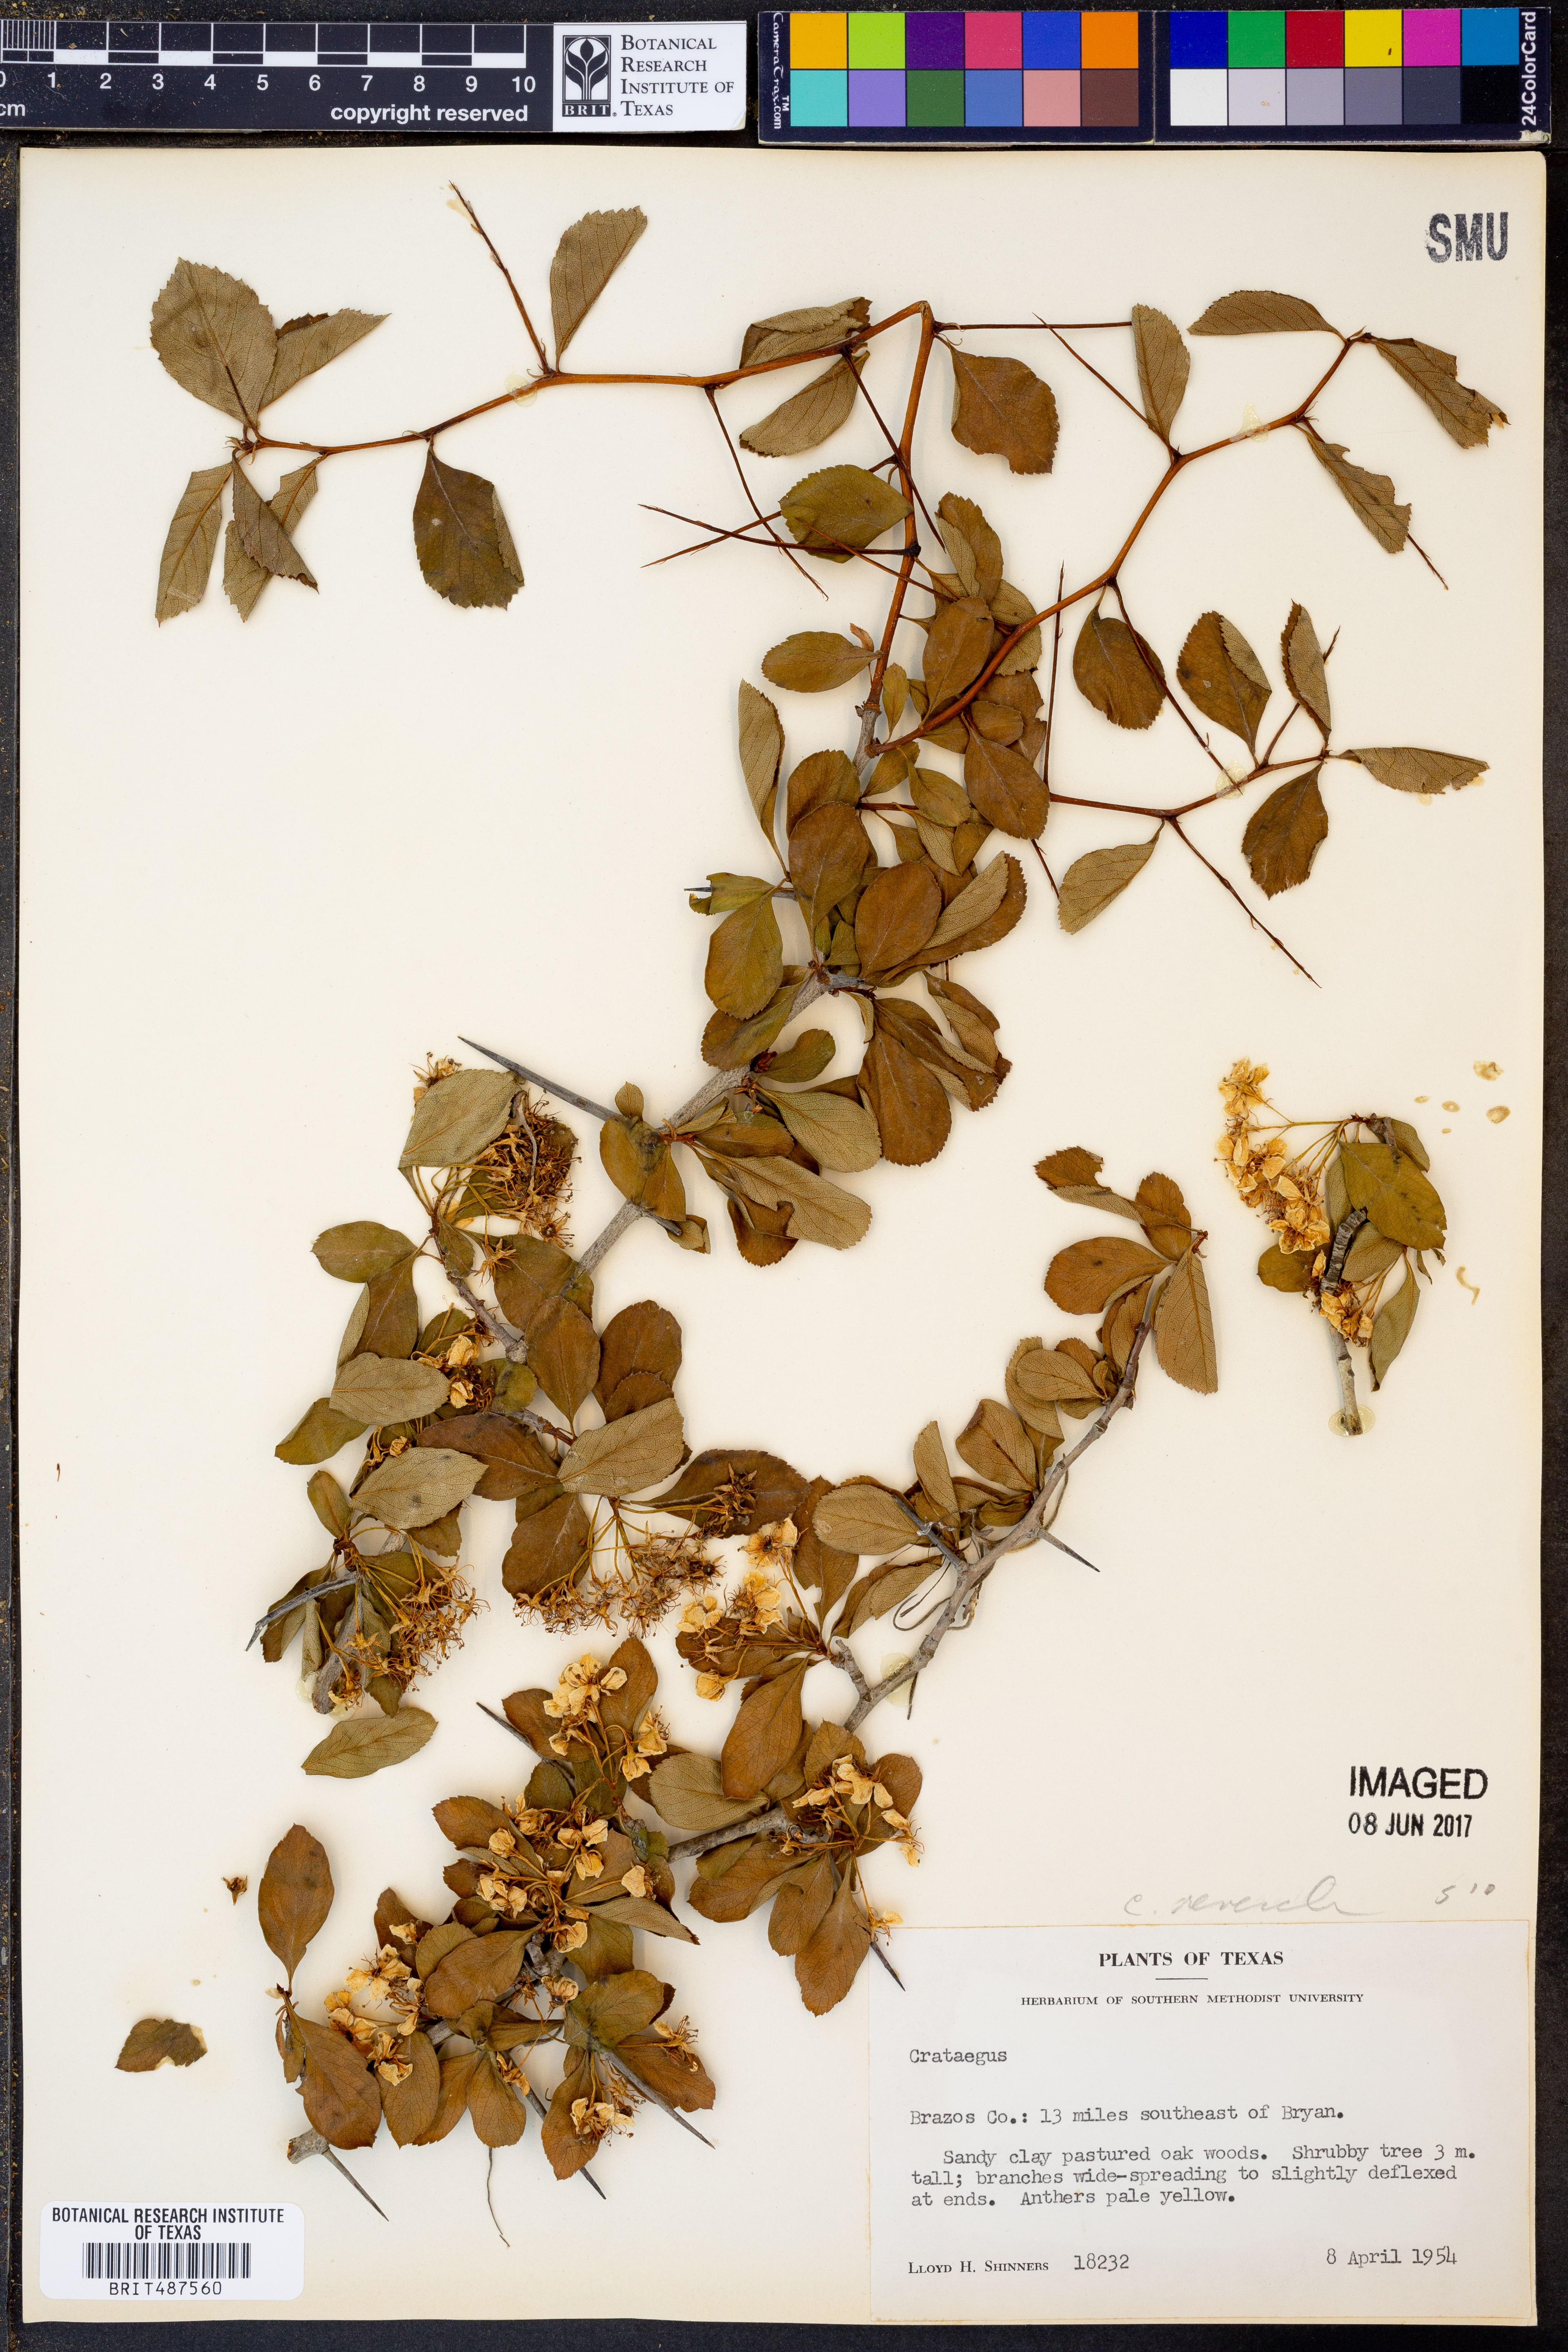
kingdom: Plantae
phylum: Tracheophyta
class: Magnoliopsida
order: Rosales
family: Rosaceae
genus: Crataegus
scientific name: Crataegus
